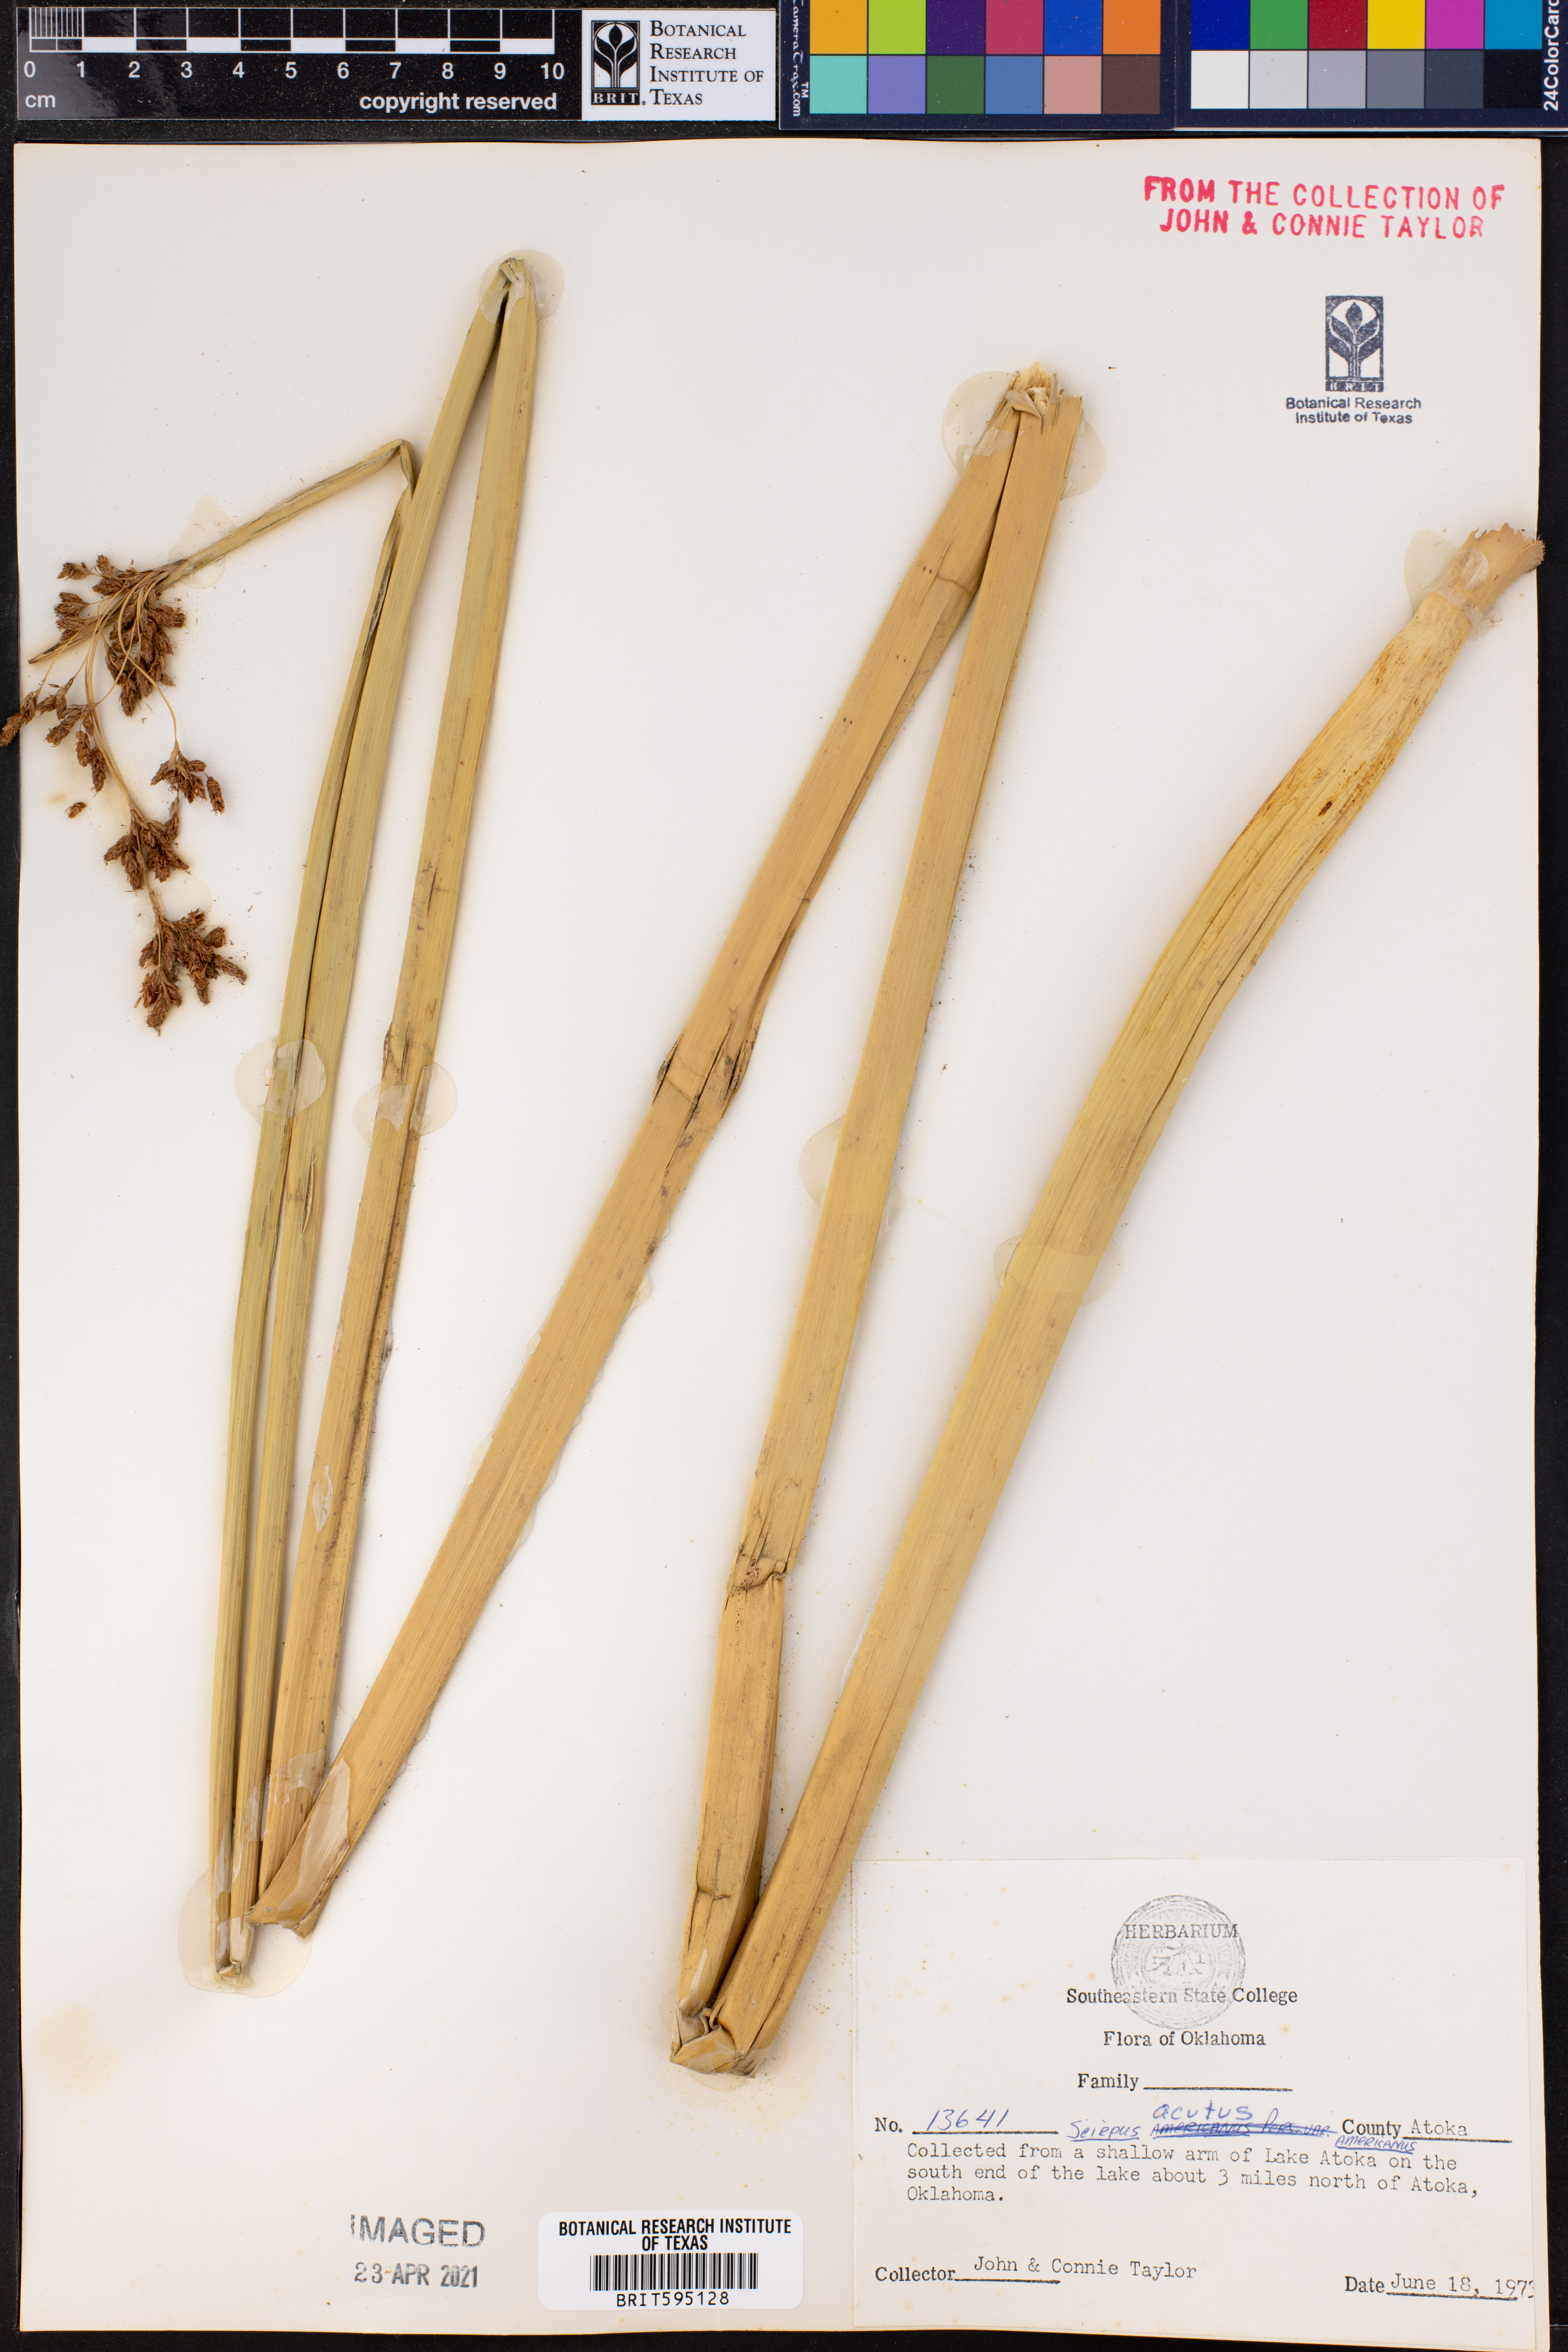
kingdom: Plantae
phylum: Tracheophyta
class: Liliopsida
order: Poales
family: Cyperaceae
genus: Scirpus
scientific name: Scirpus acutus
